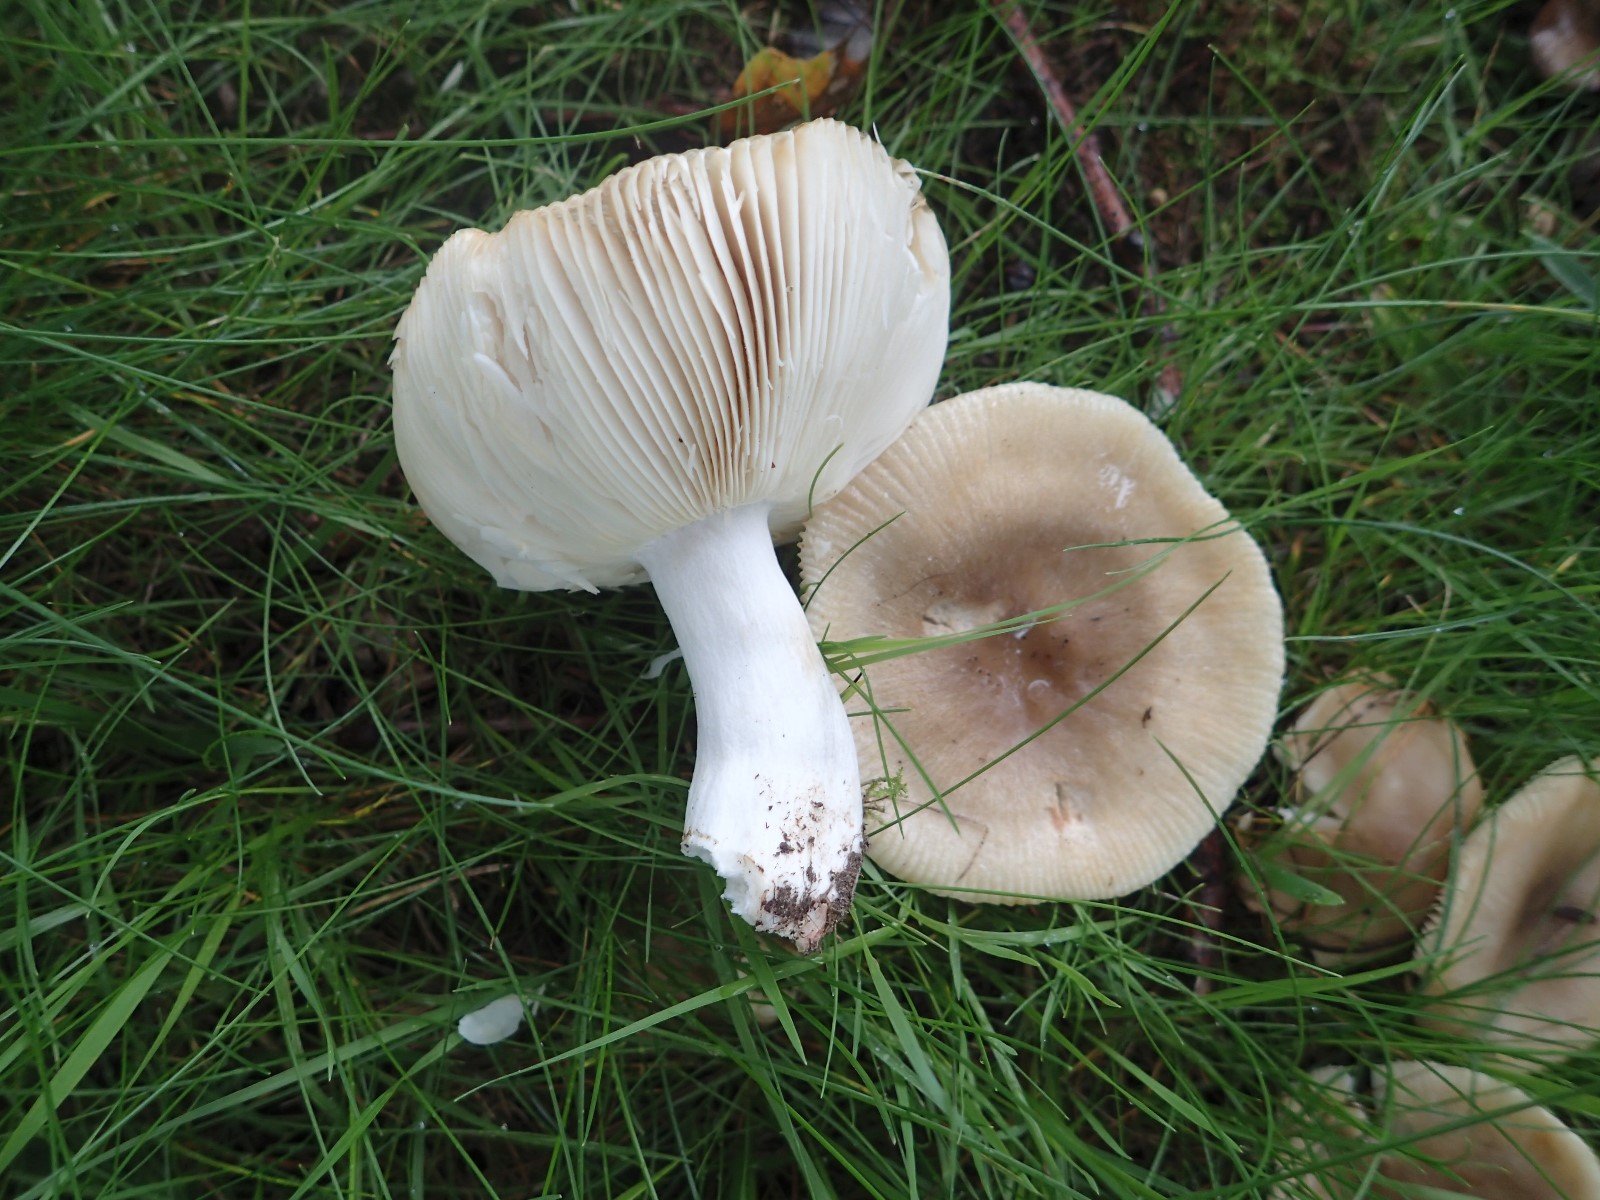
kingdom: Fungi
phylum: Basidiomycota
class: Agaricomycetes
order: Russulales
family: Russulaceae
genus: Russula
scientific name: Russula recondita
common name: mild kam-skørhat
